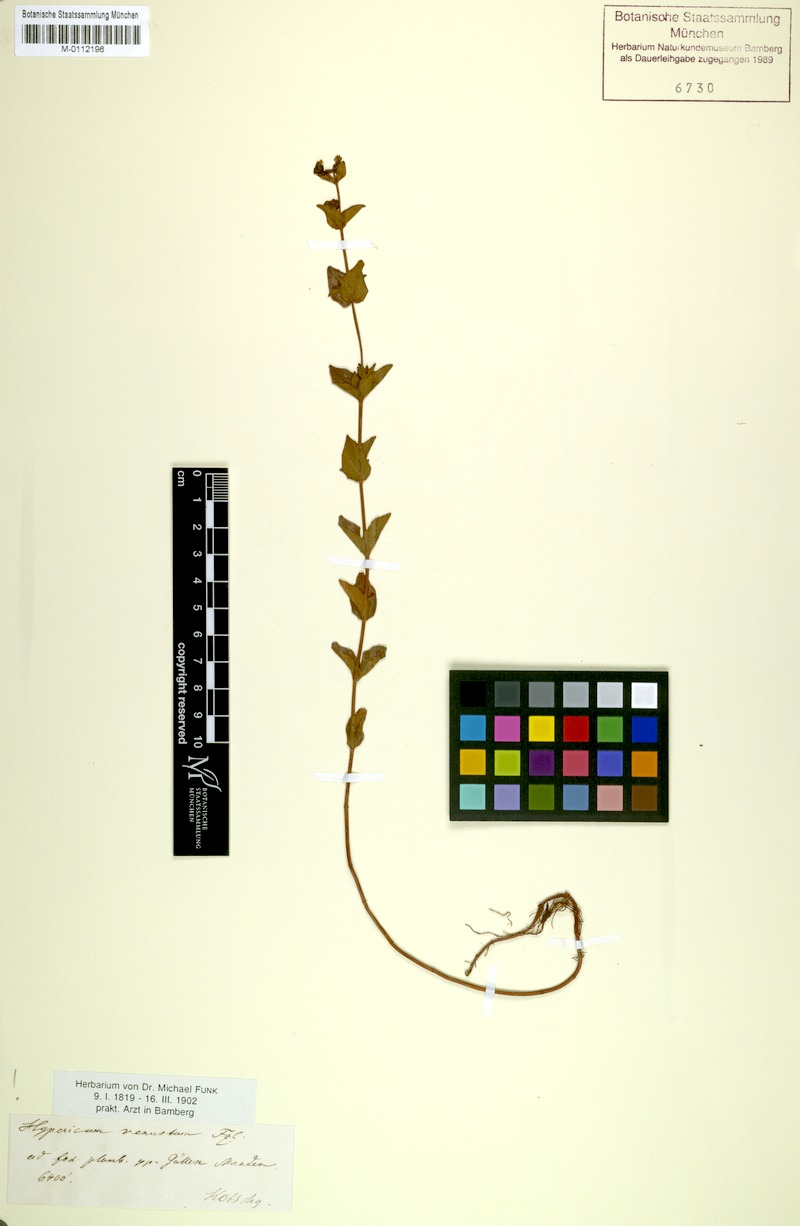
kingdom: Plantae
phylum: Tracheophyta
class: Magnoliopsida
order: Malpighiales
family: Hypericaceae
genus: Hypericum
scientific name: Hypericum venustum
